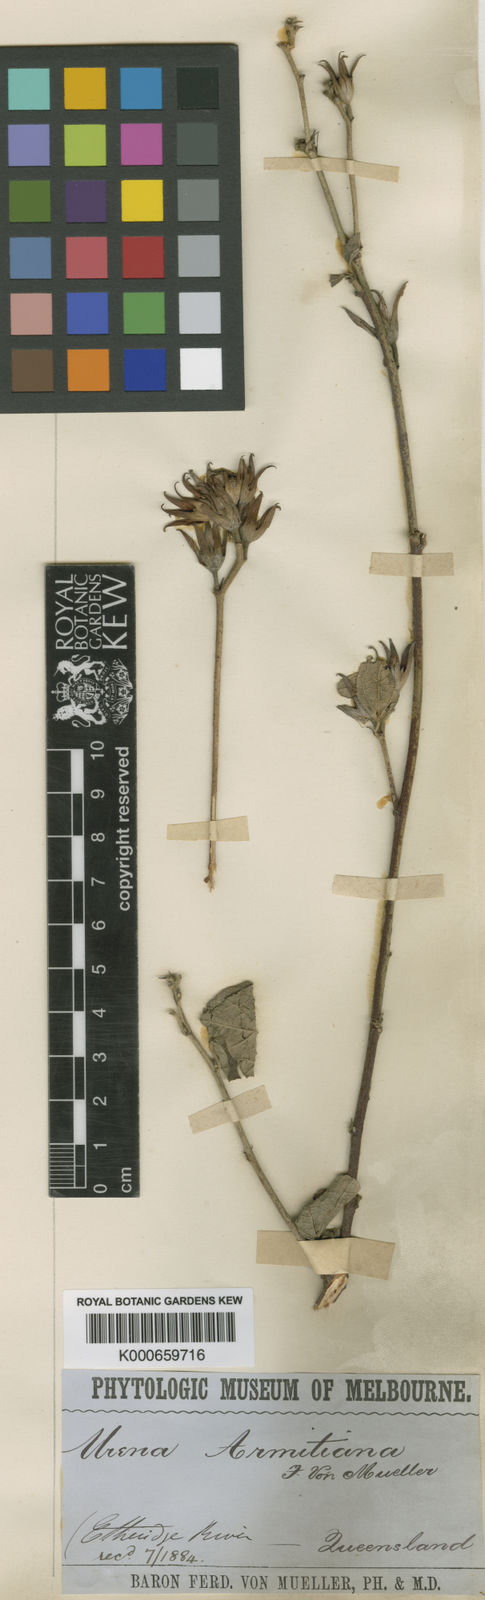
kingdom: Plantae
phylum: Tracheophyta
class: Magnoliopsida
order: Malvales
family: Malvaceae
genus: Urena
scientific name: Urena armitiana
